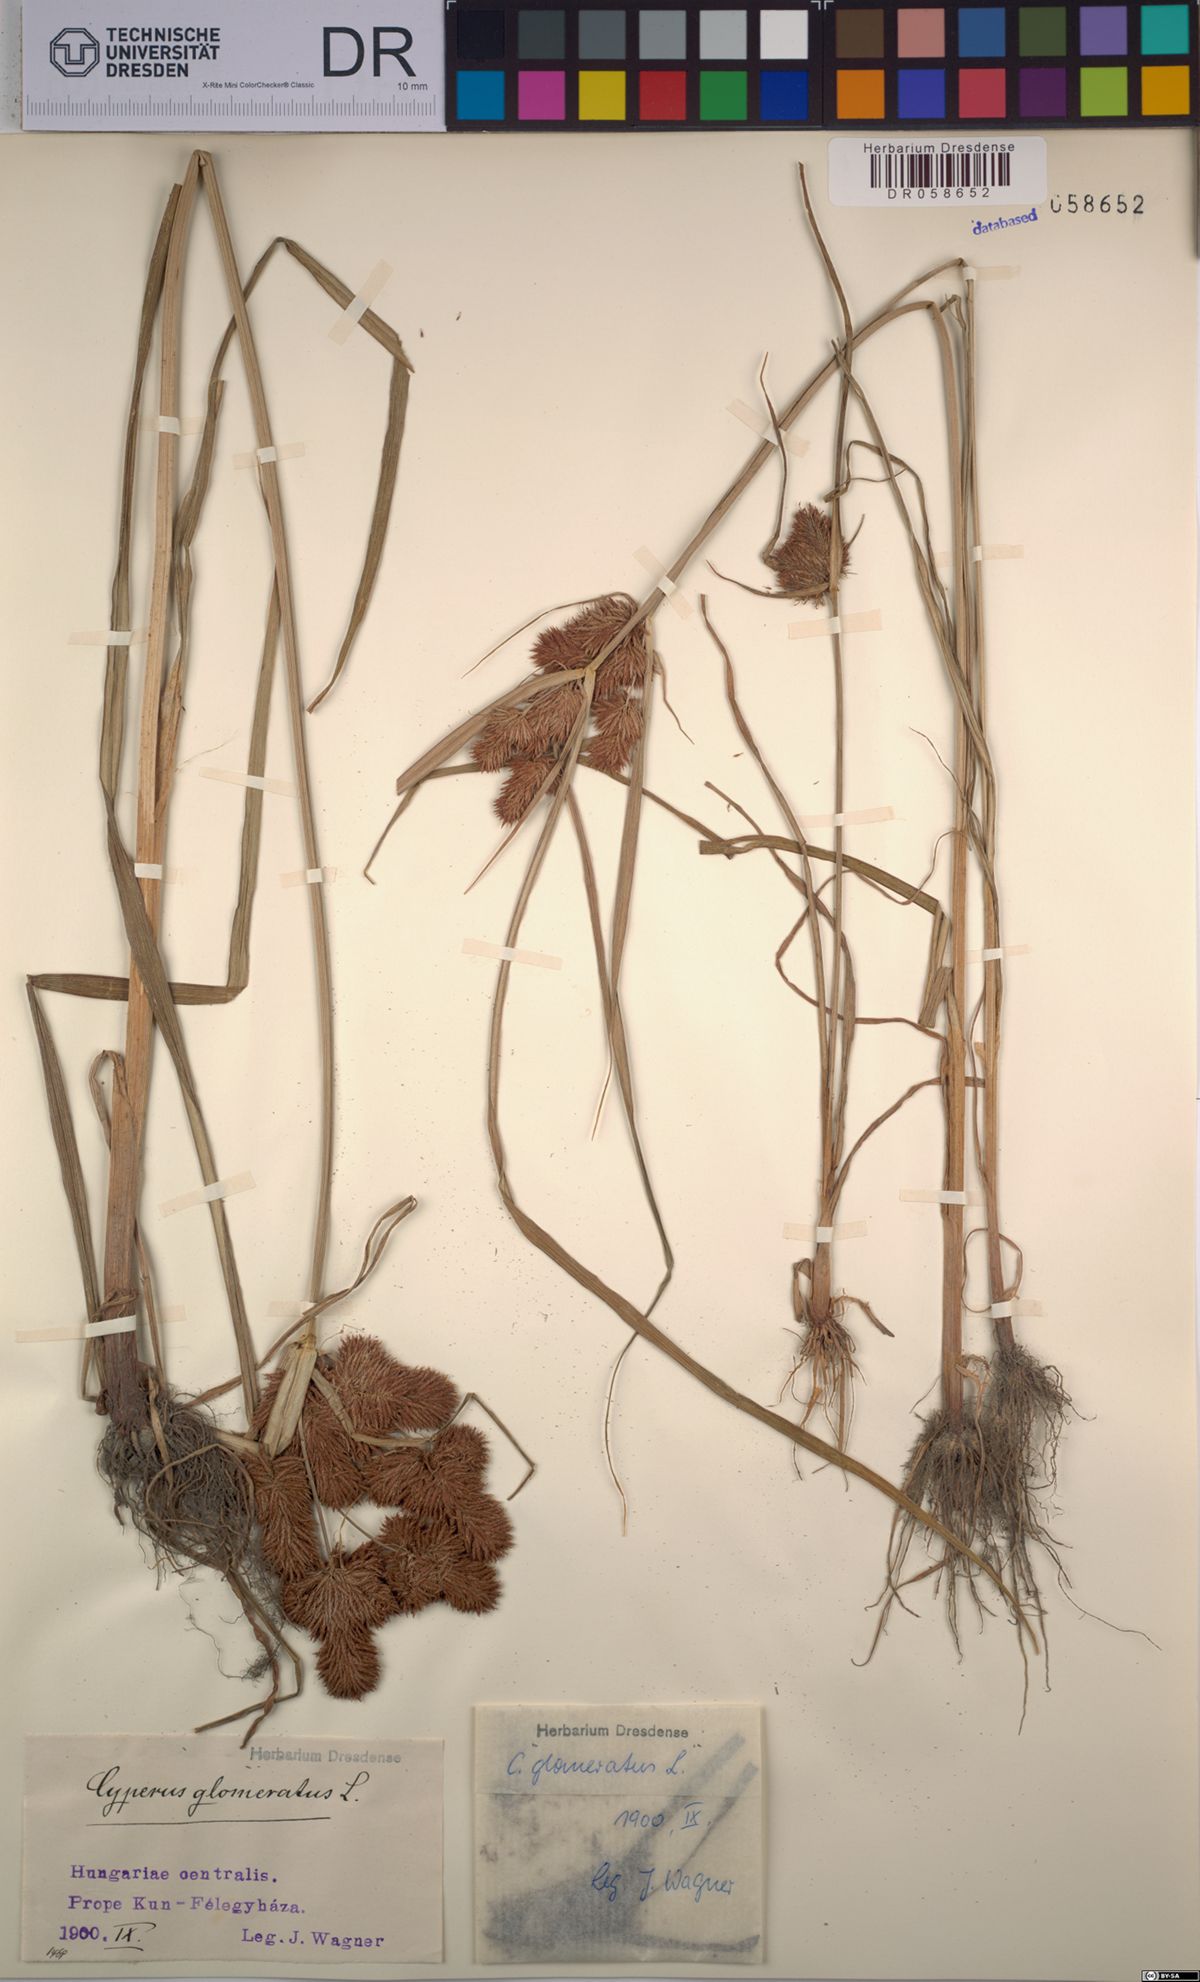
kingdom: Plantae
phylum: Tracheophyta
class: Liliopsida
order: Poales
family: Cyperaceae
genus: Cyperus
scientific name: Cyperus glomeratus
